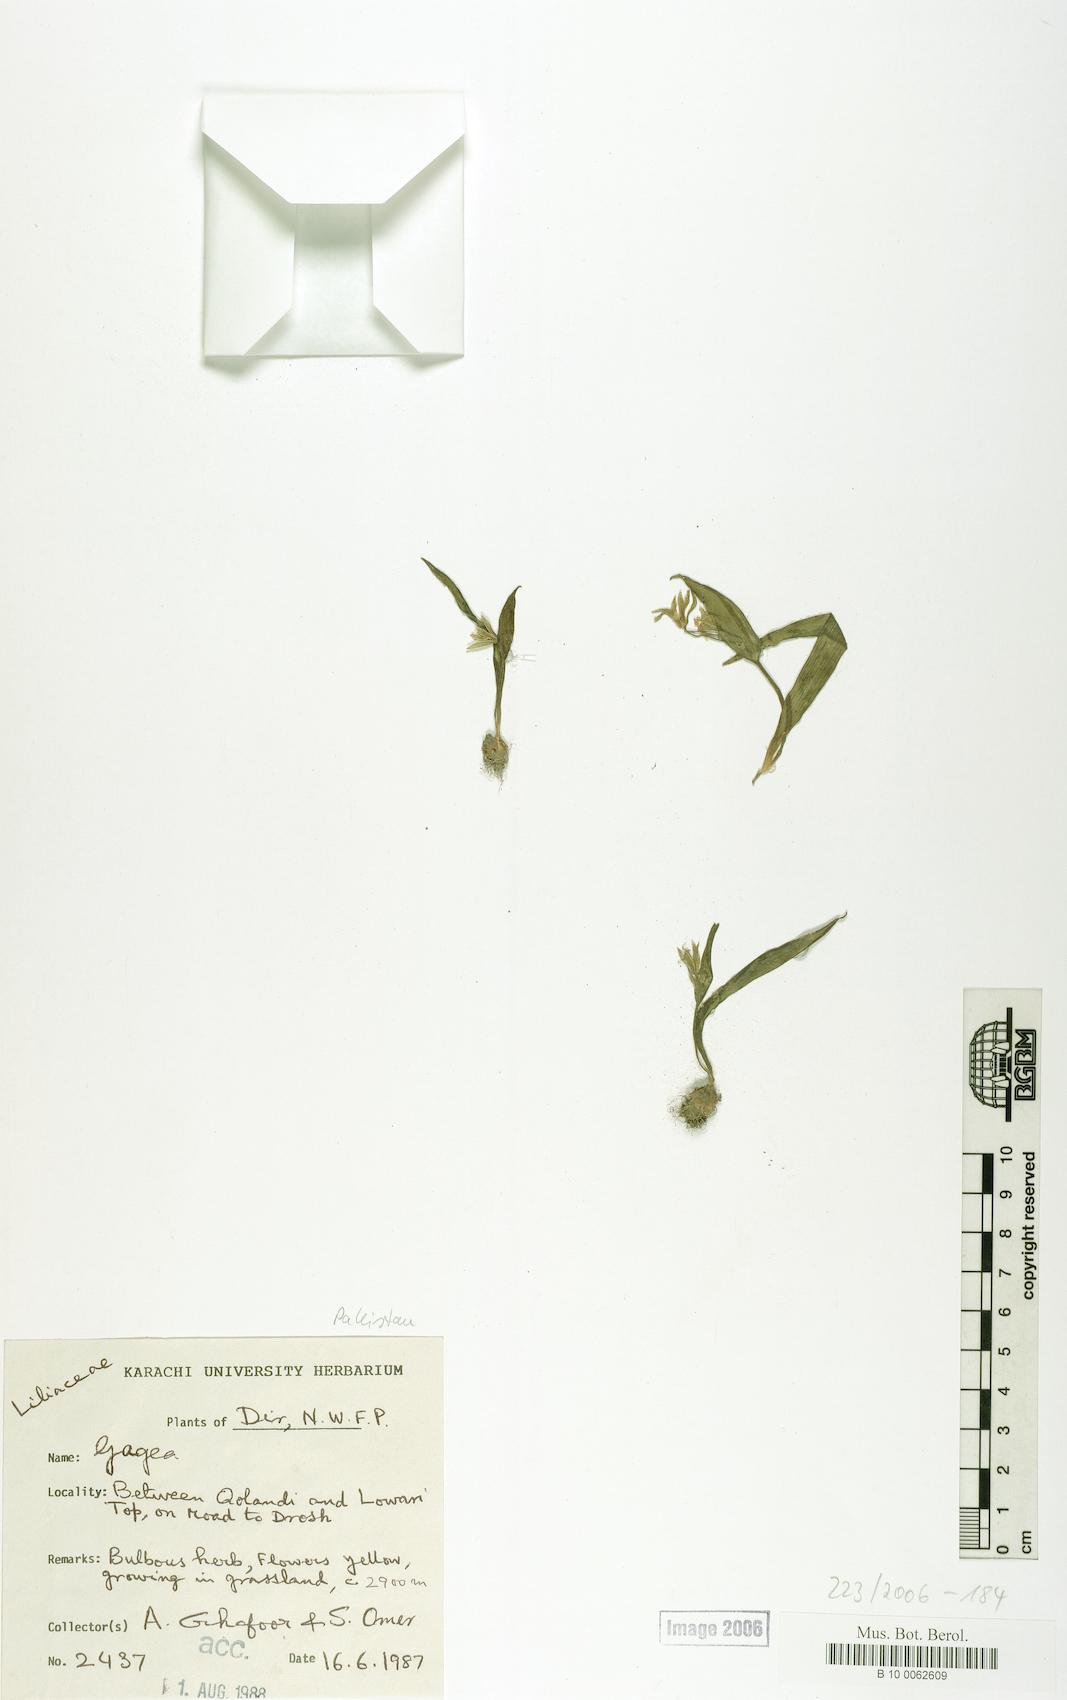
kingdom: Plantae
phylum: Tracheophyta
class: Liliopsida
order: Liliales
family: Liliaceae
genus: Gagea
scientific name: Gagea
